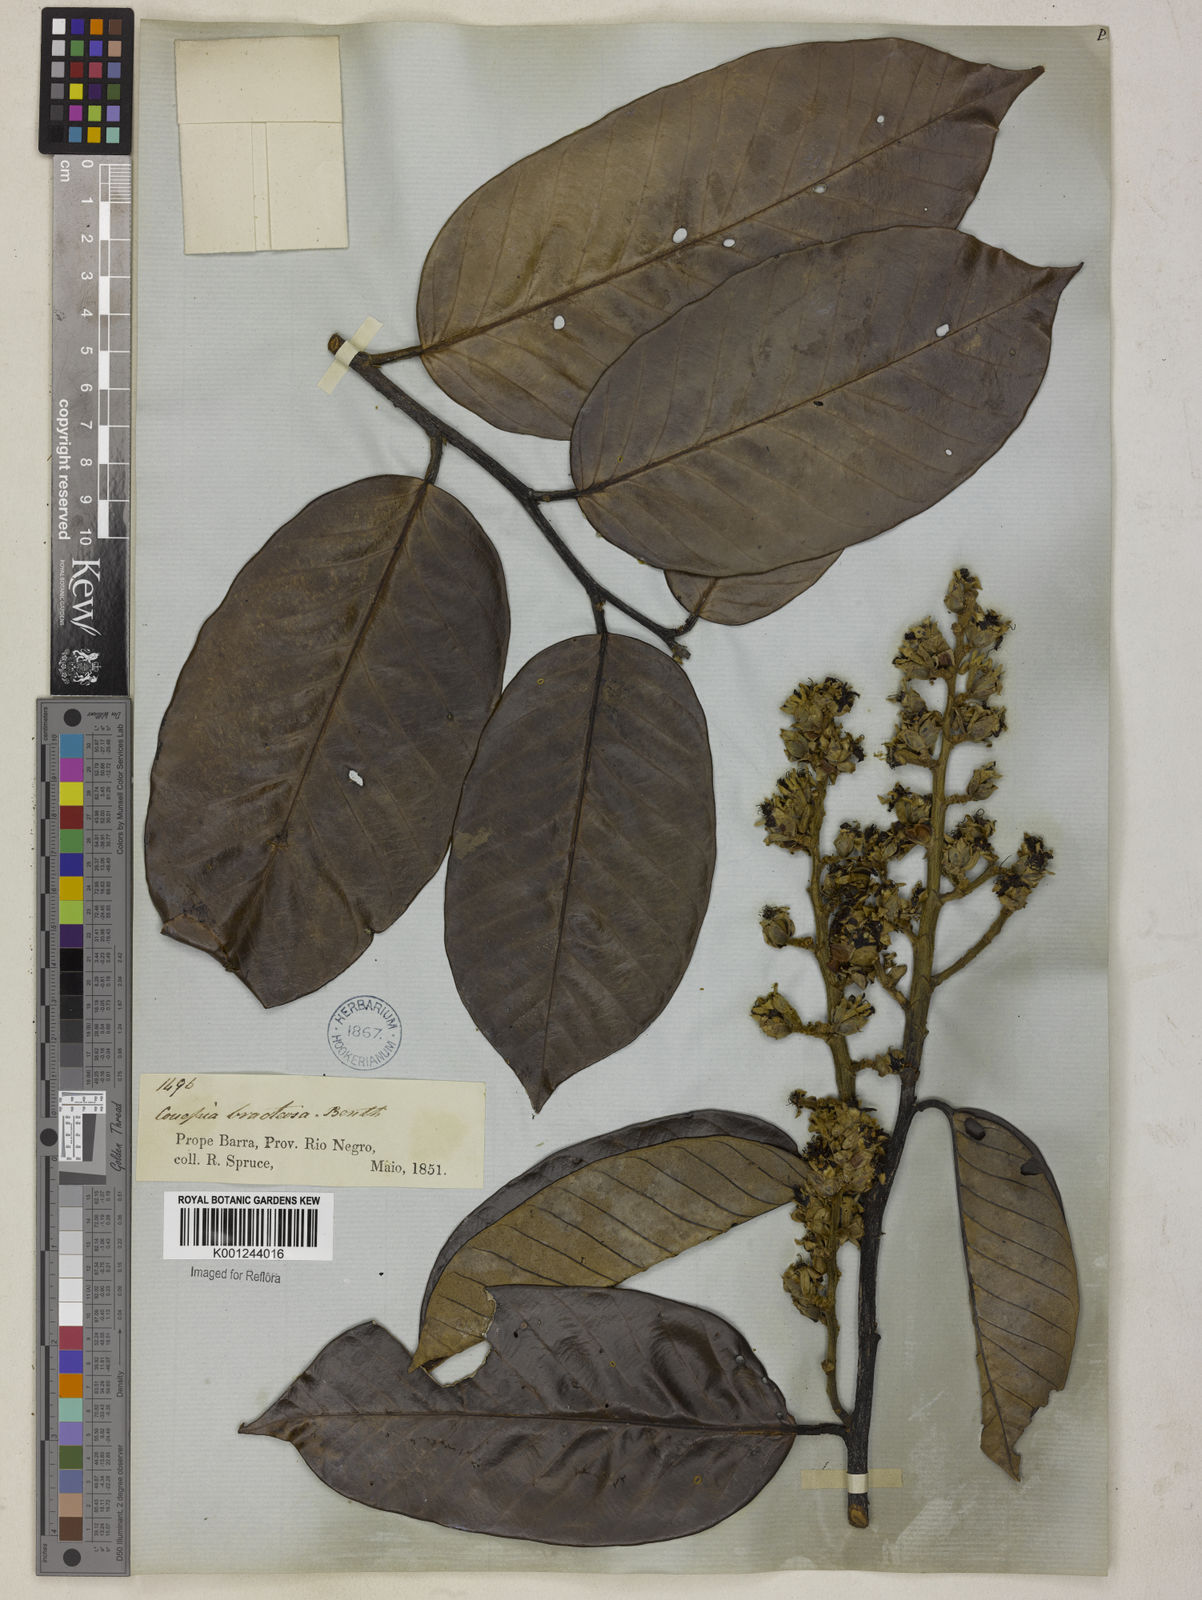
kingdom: Plantae
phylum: Tracheophyta
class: Magnoliopsida
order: Malpighiales
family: Chrysobalanaceae
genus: Couepia
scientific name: Couepia bracteosa
